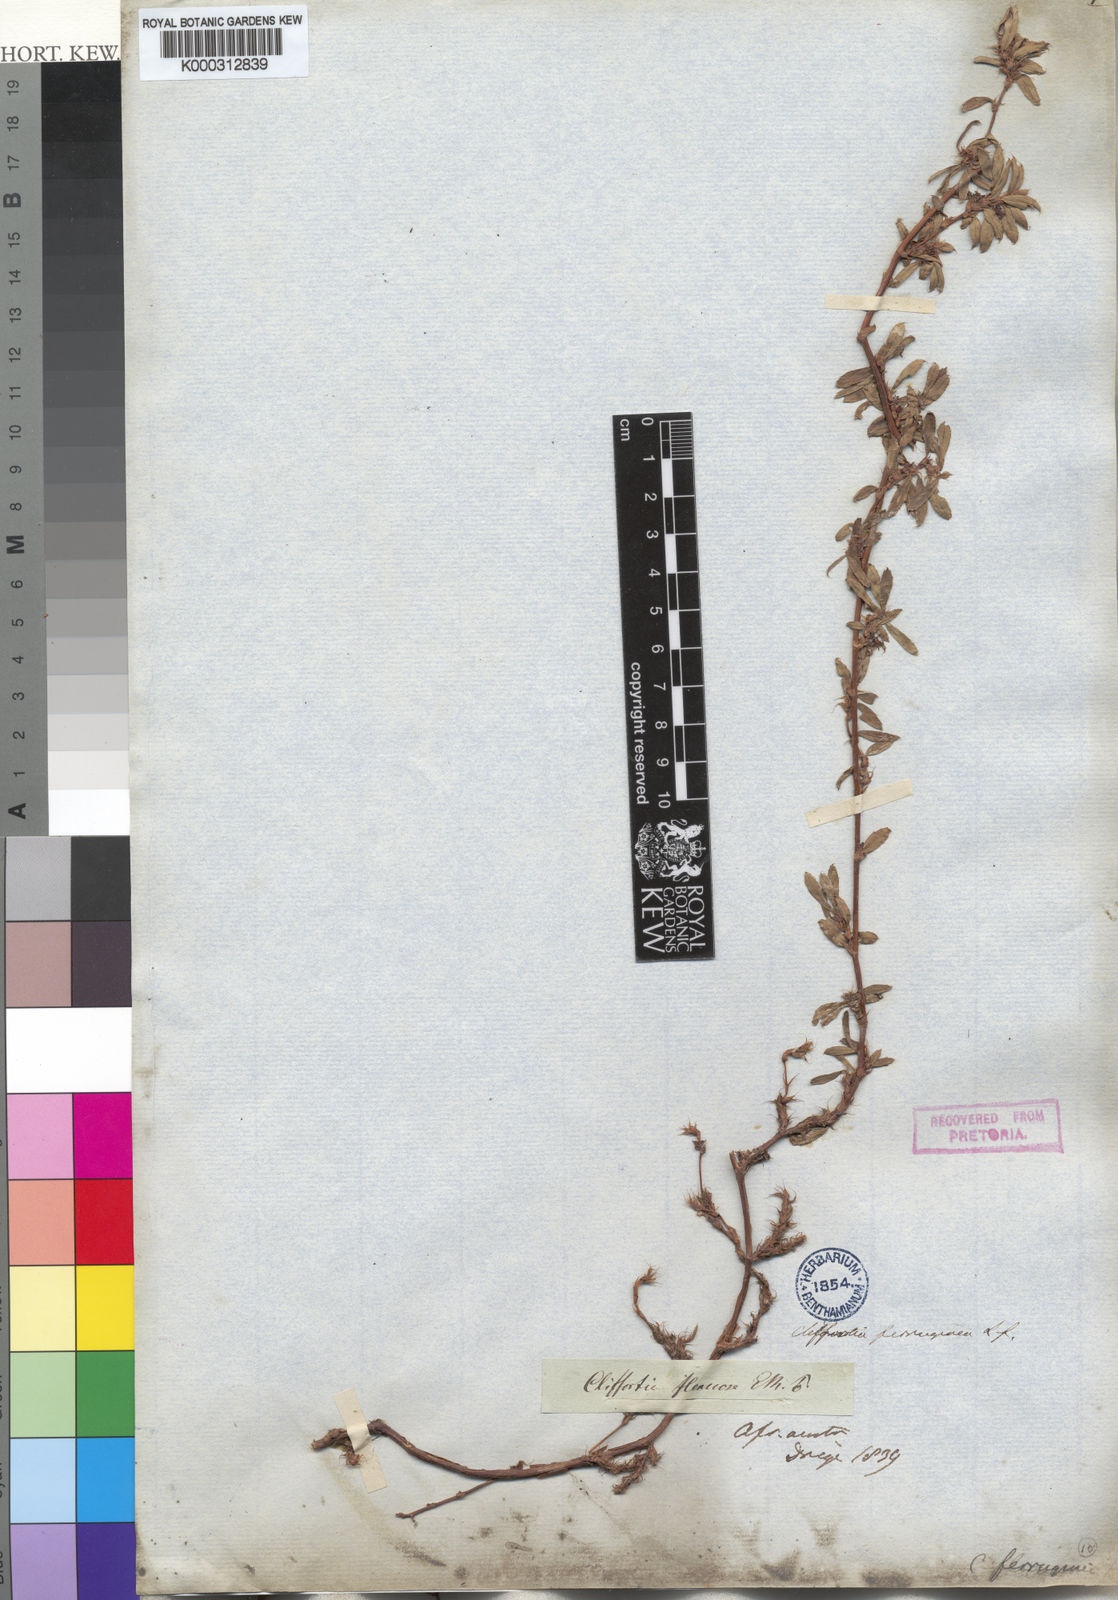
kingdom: Plantae
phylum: Tracheophyta
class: Magnoliopsida
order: Rosales
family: Rosaceae
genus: Cliffortia
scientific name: Cliffortia ferruginea
